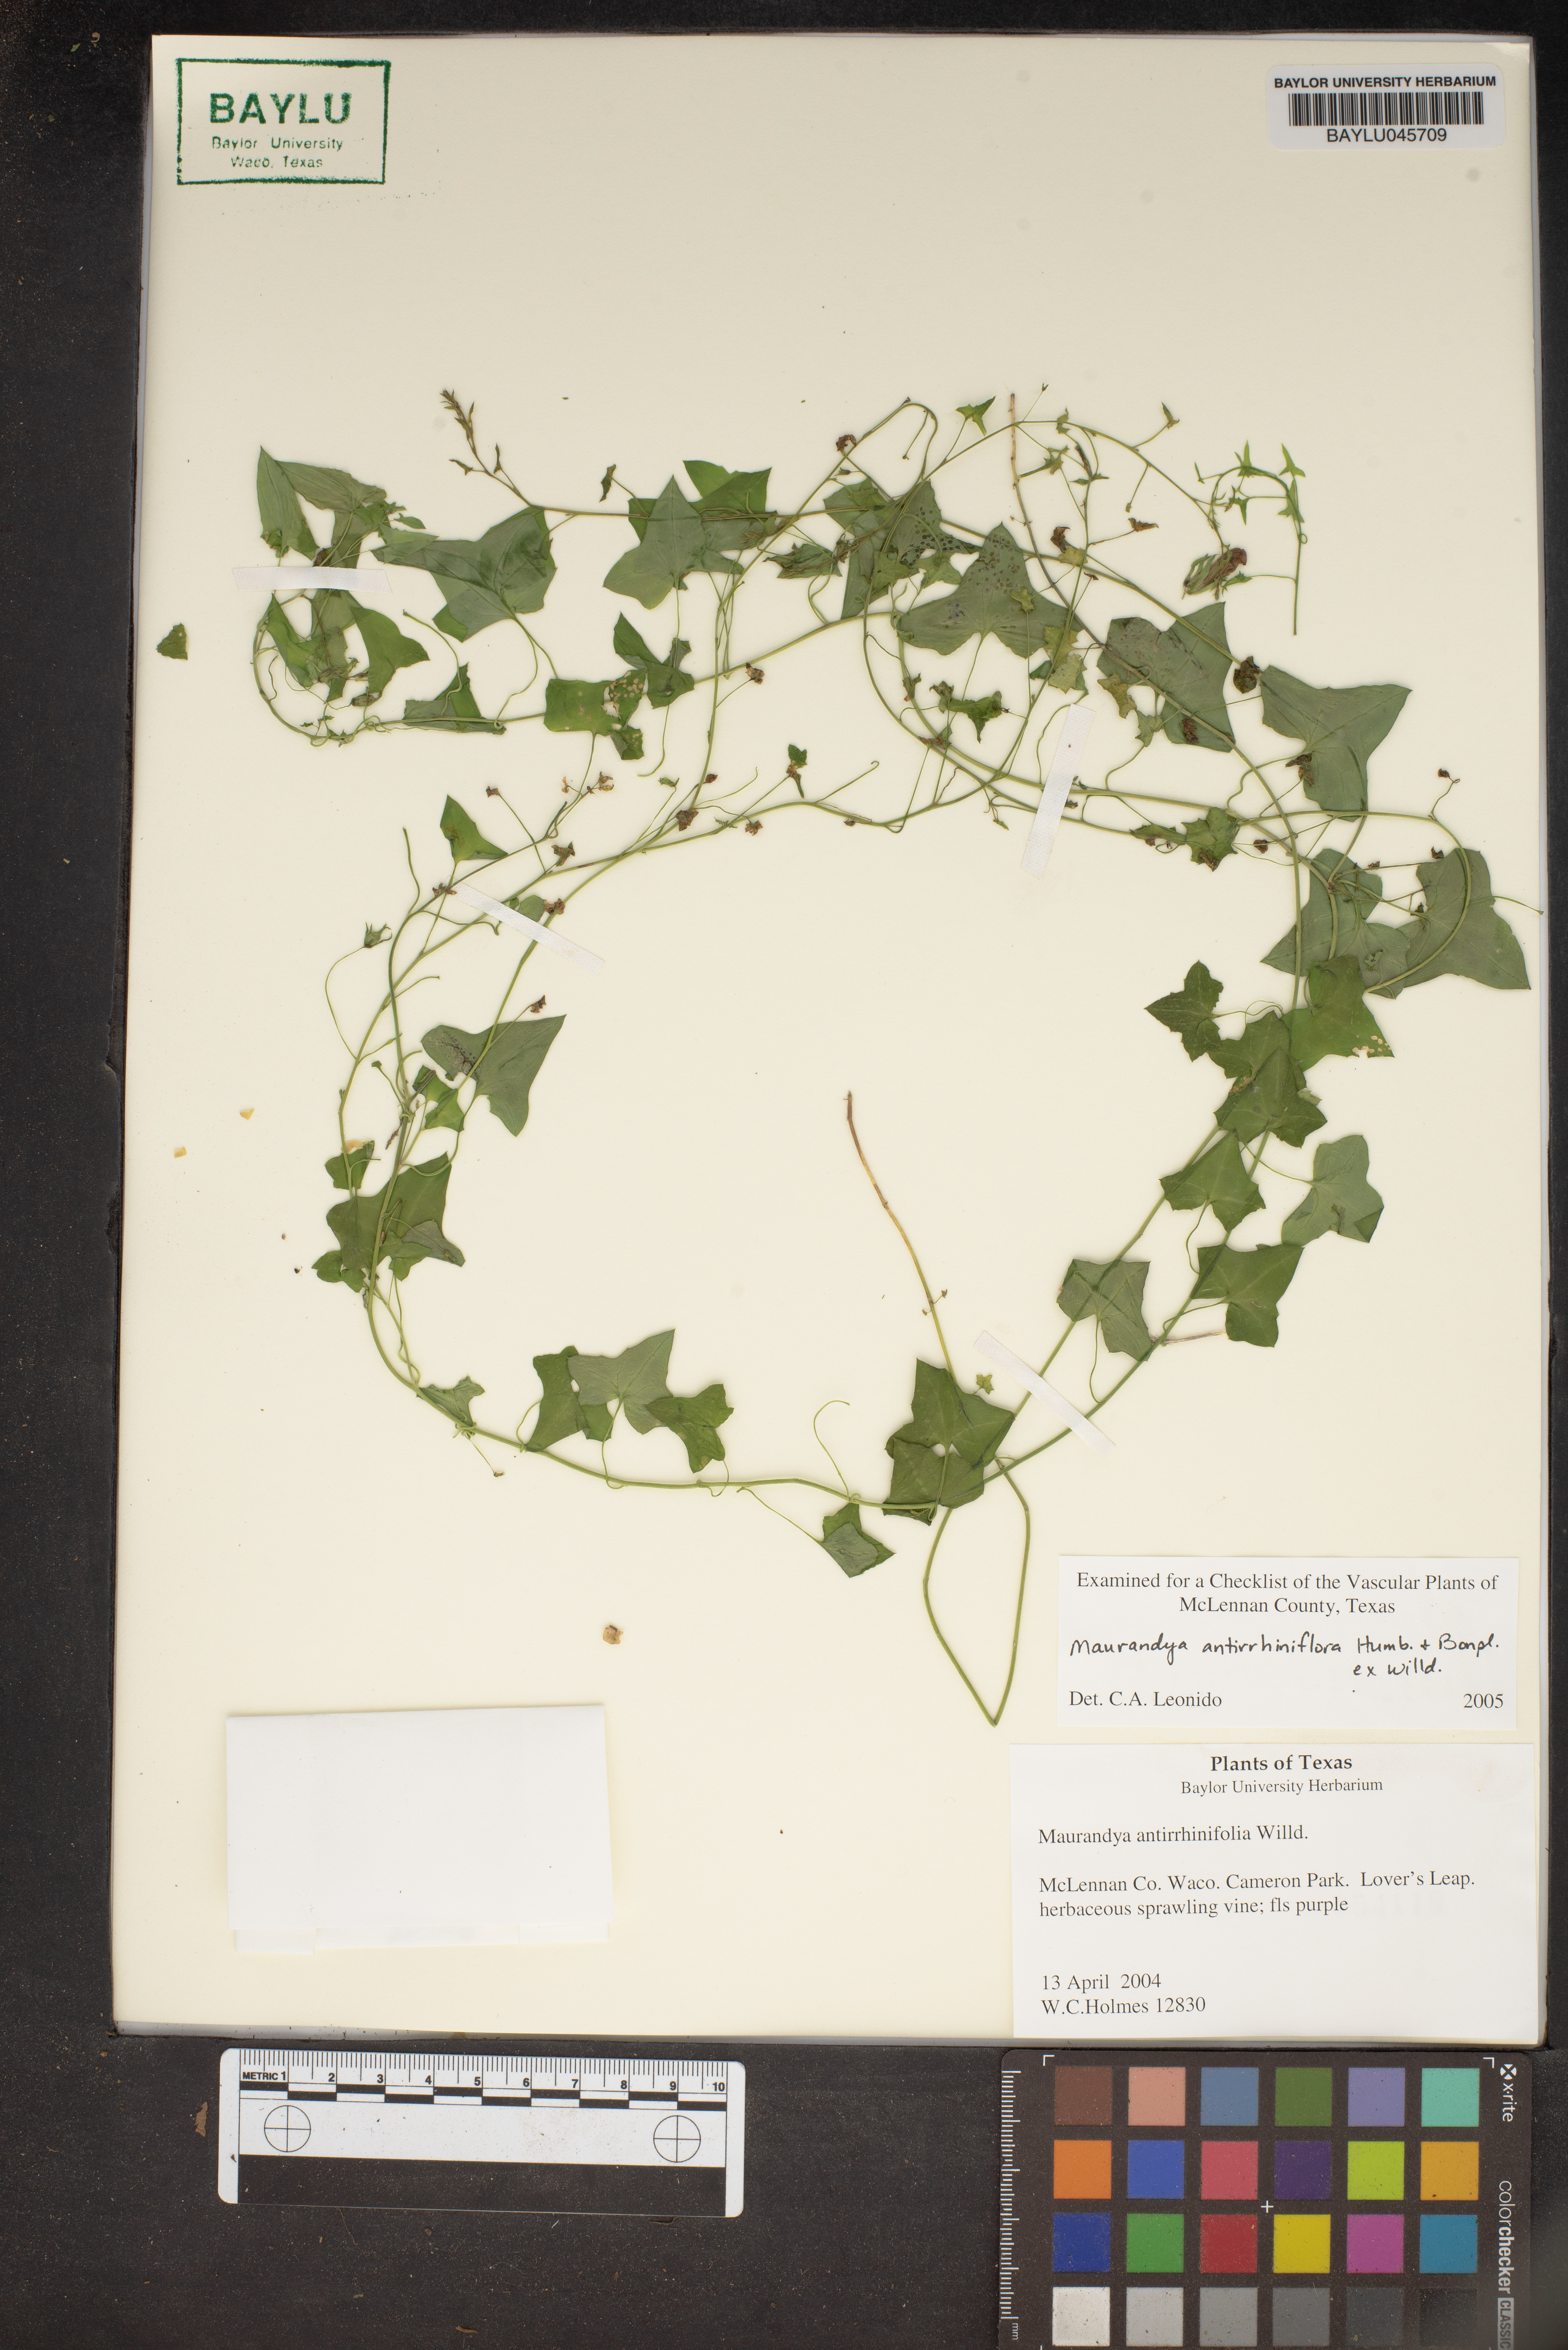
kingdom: Plantae
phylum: Tracheophyta
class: Magnoliopsida
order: Lamiales
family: Plantaginaceae
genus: Maurandella
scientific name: Maurandella antirrhiniflora
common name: Violet twining-snapdragon
